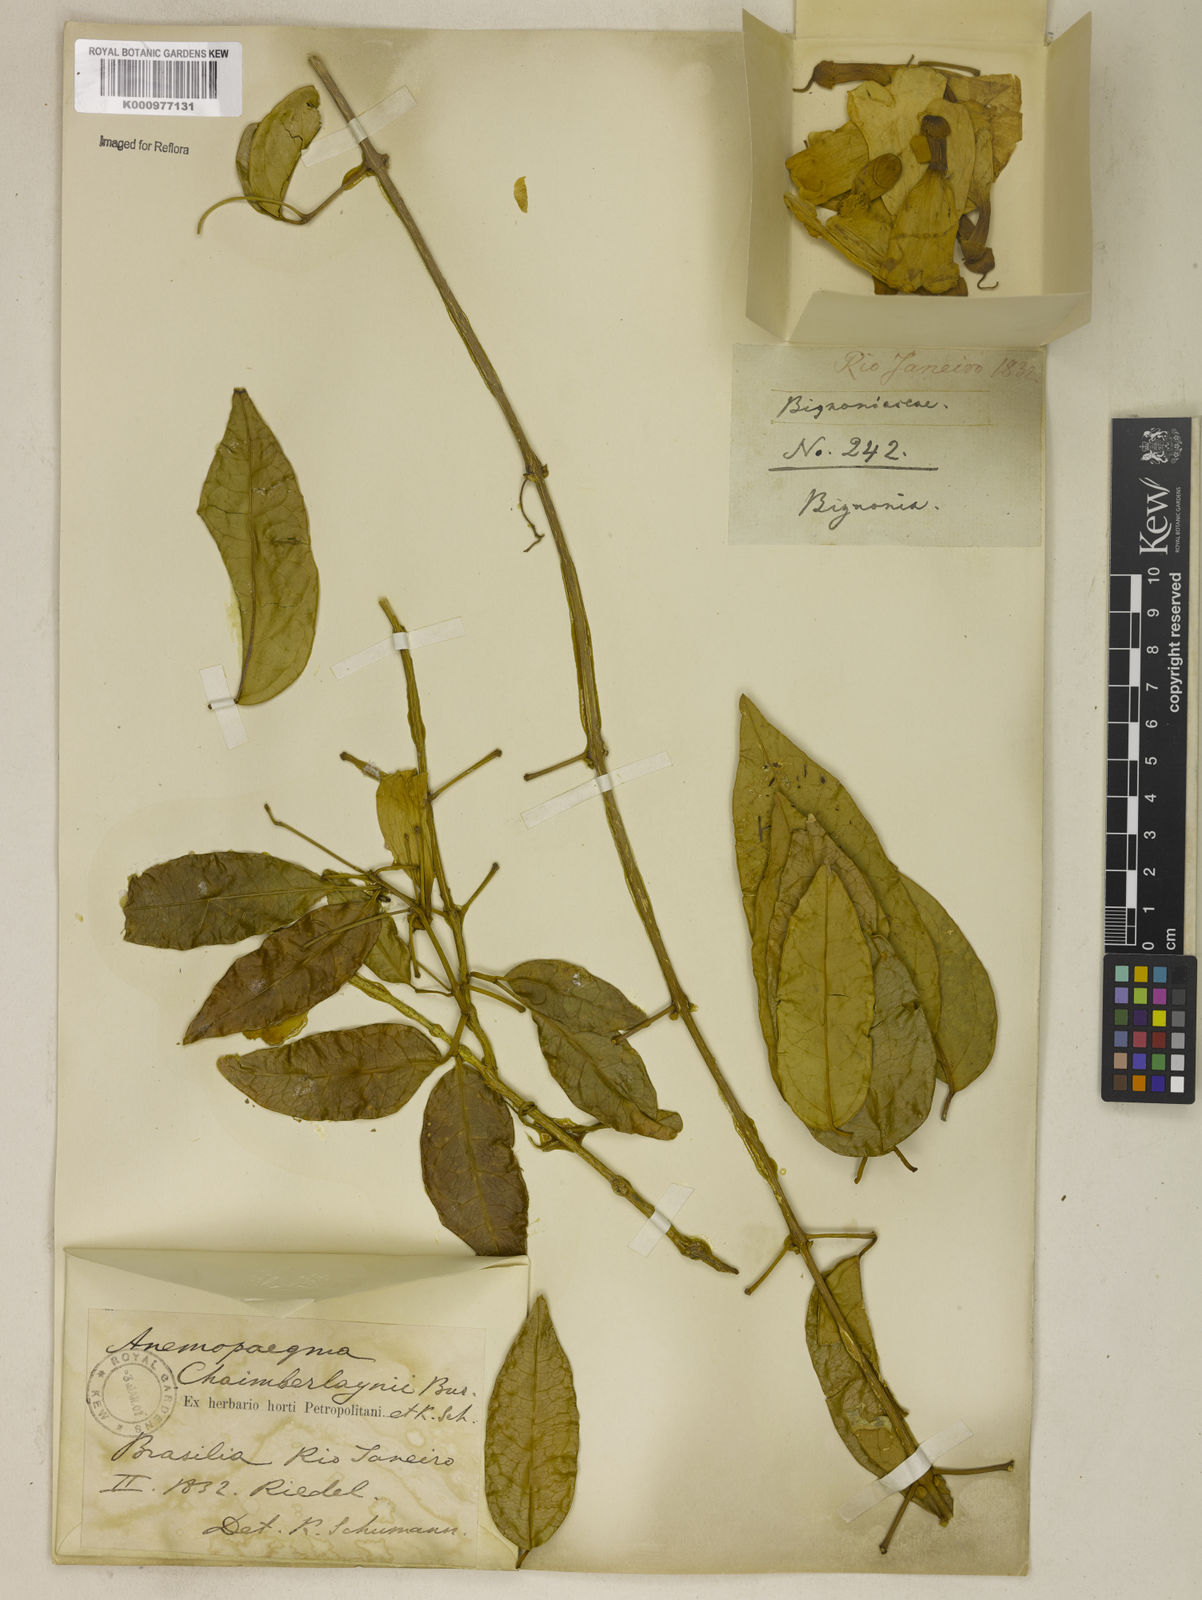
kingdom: Plantae
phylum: Tracheophyta
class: Magnoliopsida
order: Lamiales
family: Bignoniaceae
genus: Anemopaegma
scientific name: Anemopaegma chamberlaynii
